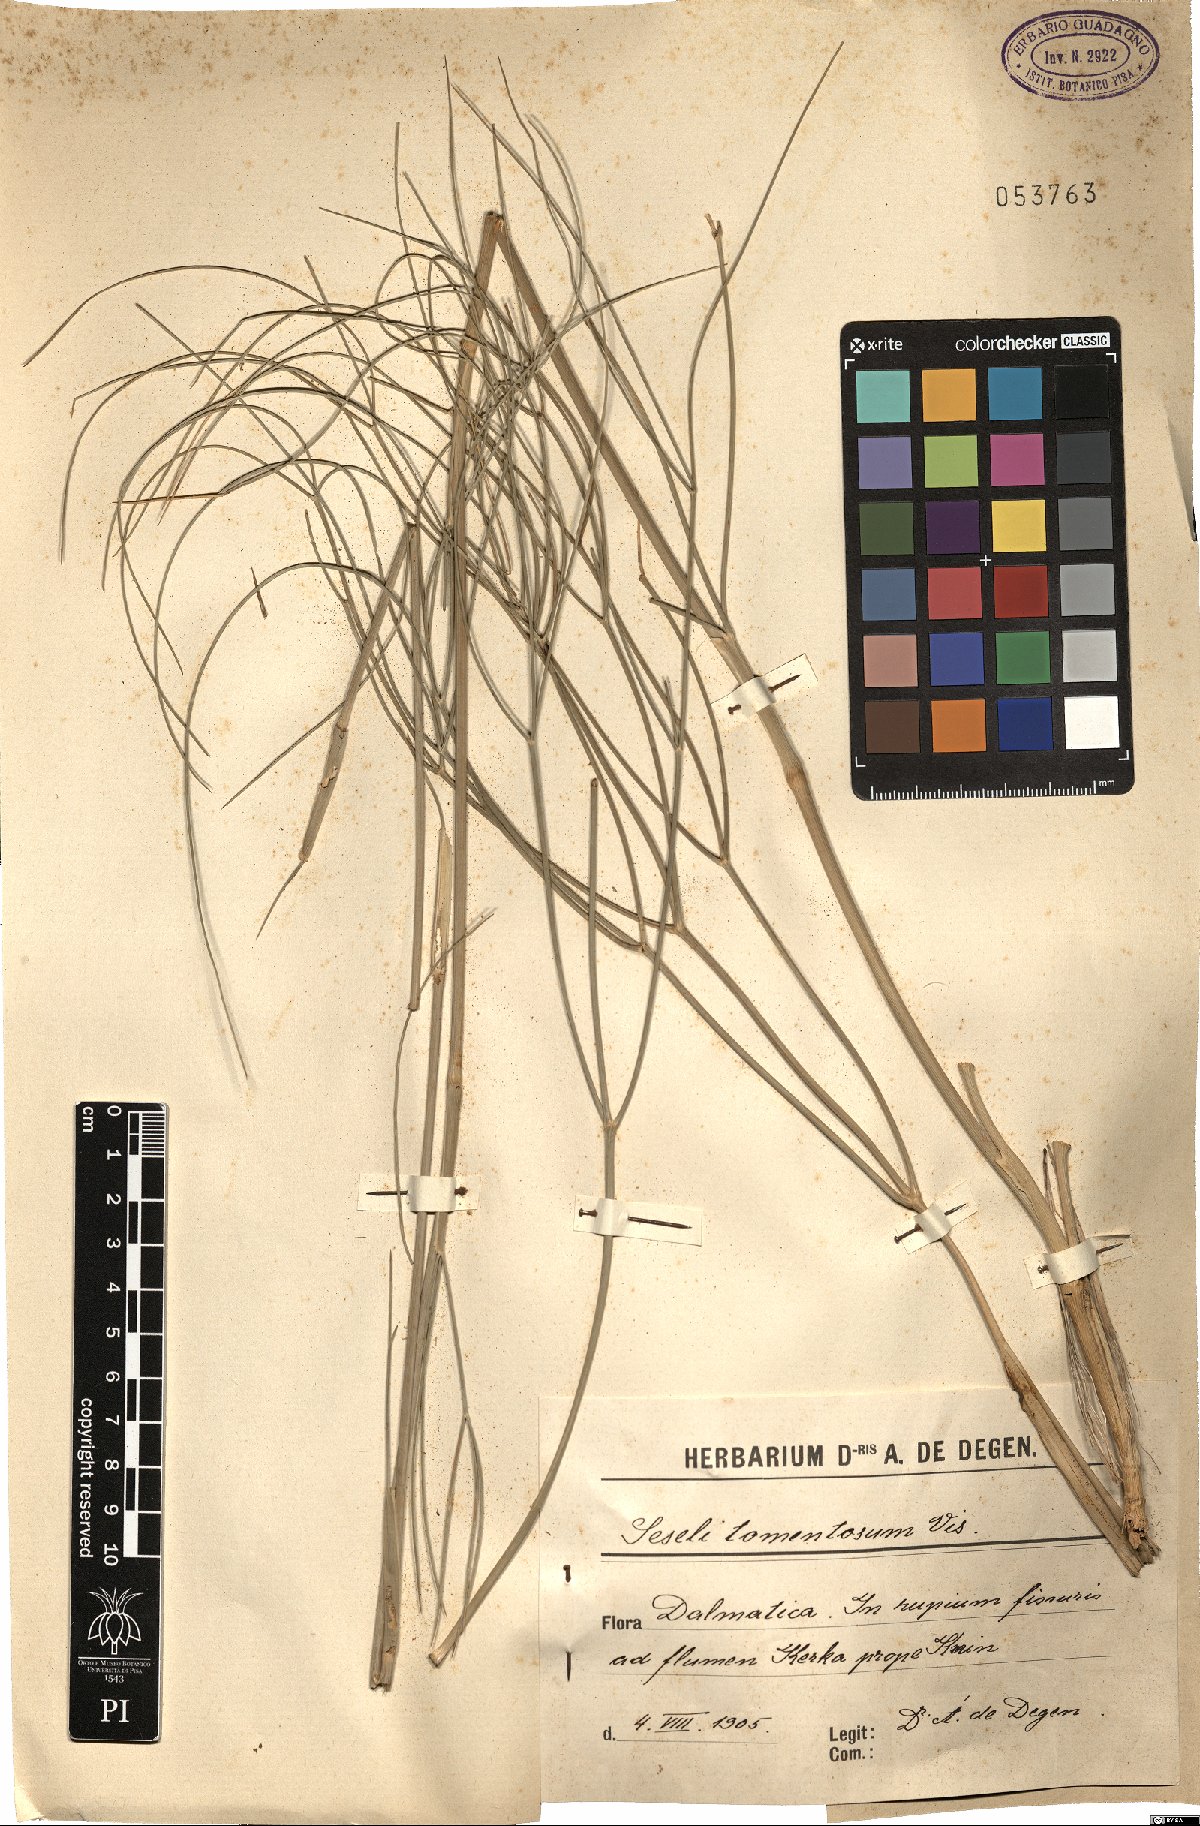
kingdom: Plantae
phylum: Tracheophyta
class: Magnoliopsida
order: Apiales
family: Apiaceae
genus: Seseli
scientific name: Seseli tortuosum
